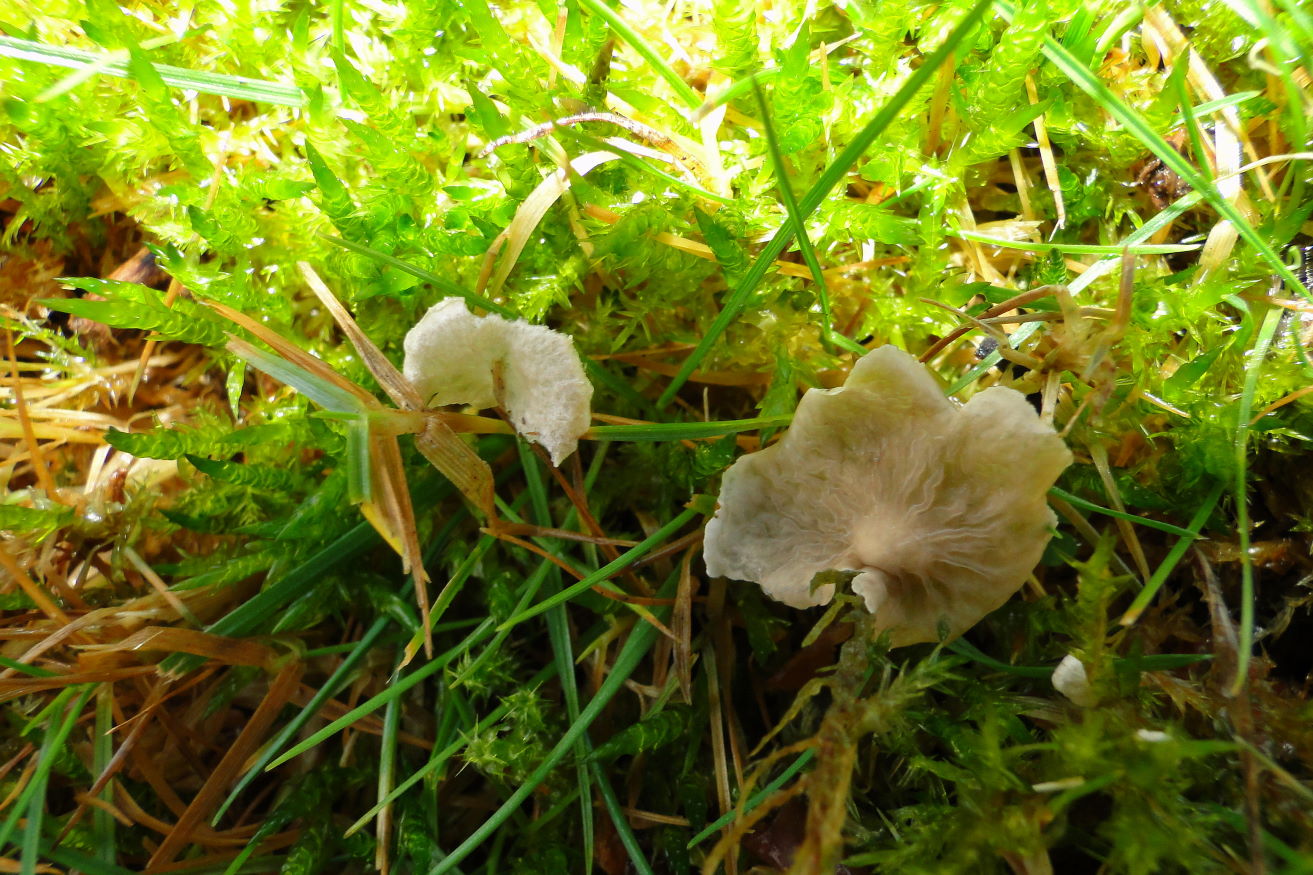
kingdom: Fungi
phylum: Basidiomycota
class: Agaricomycetes
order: Agaricales
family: Hygrophoraceae
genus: Arrhenia
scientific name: Arrhenia retiruga
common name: lille fontænehat
